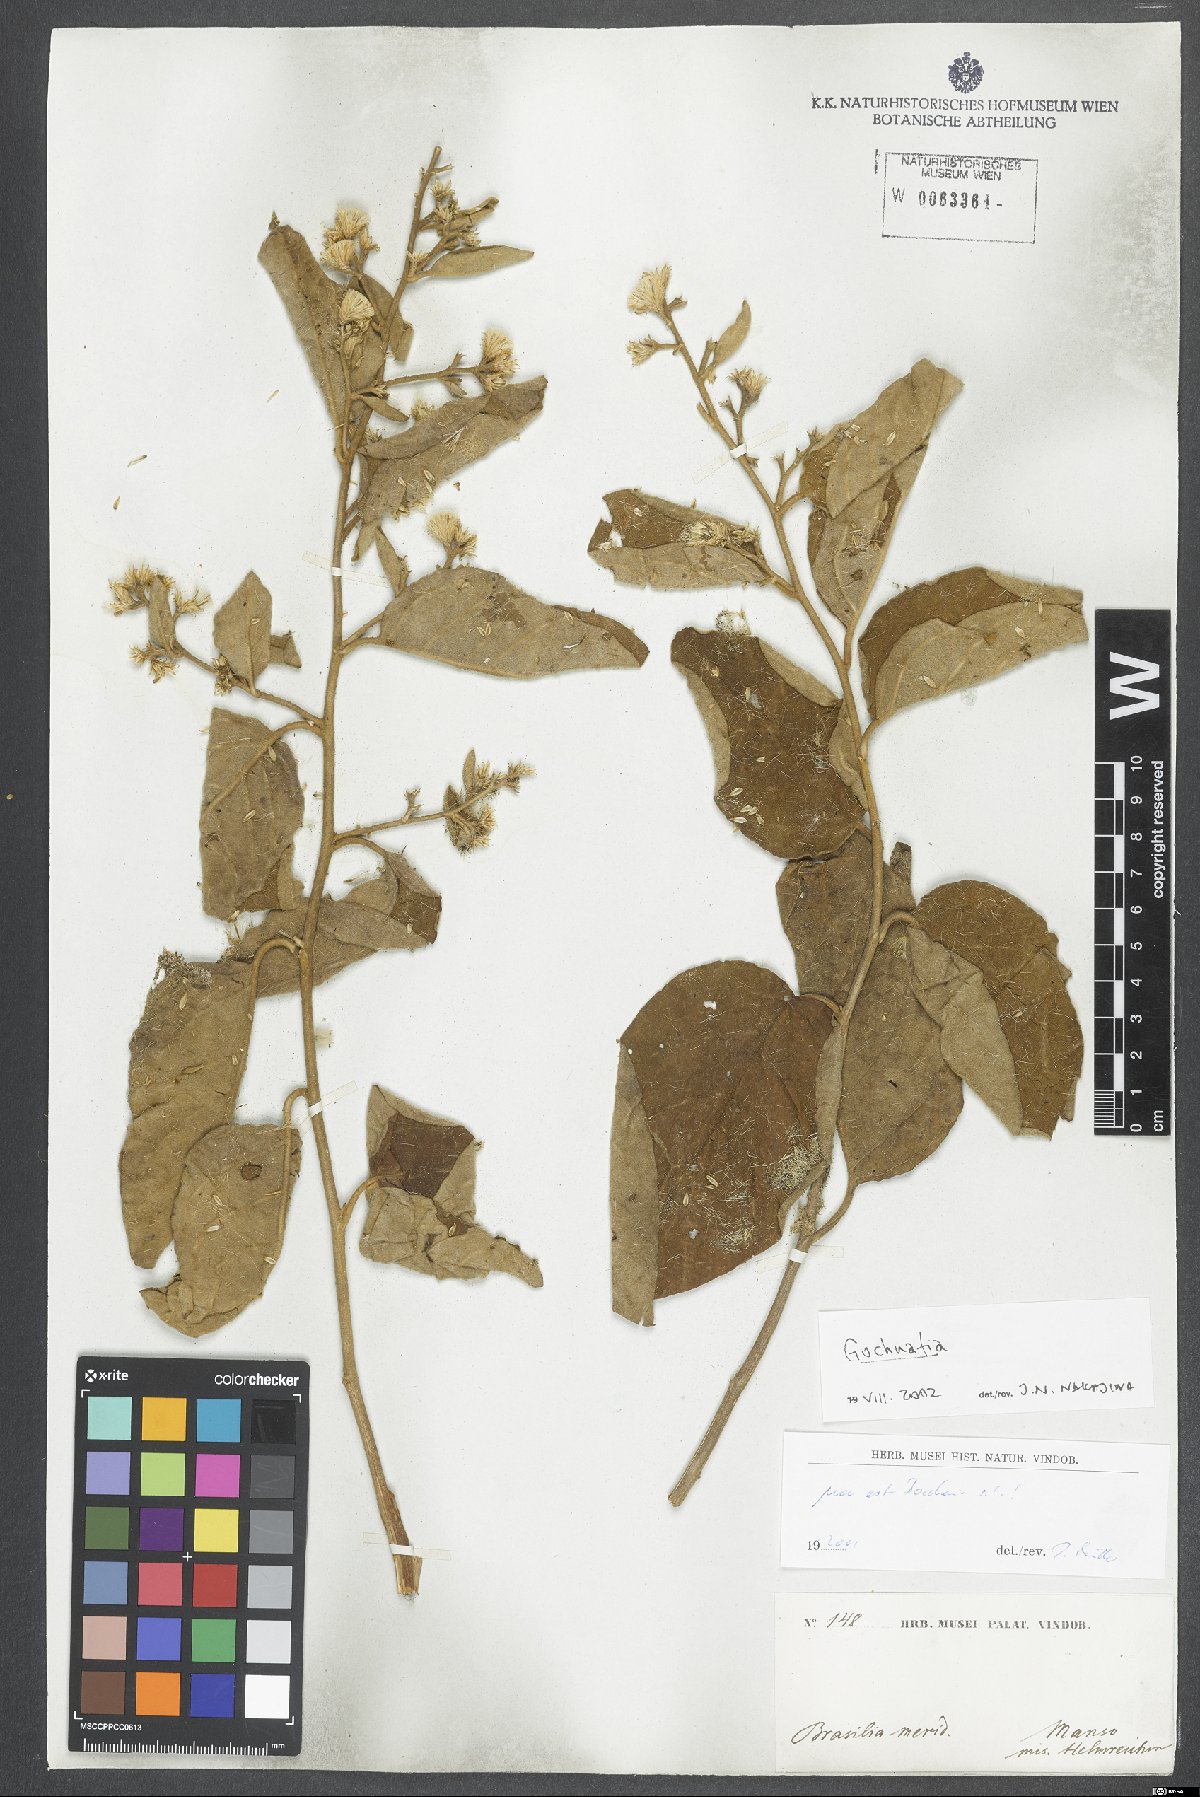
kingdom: Plantae
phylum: Tracheophyta
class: Magnoliopsida
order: Asterales
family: Asteraceae
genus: Gochnatia
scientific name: Gochnatia
